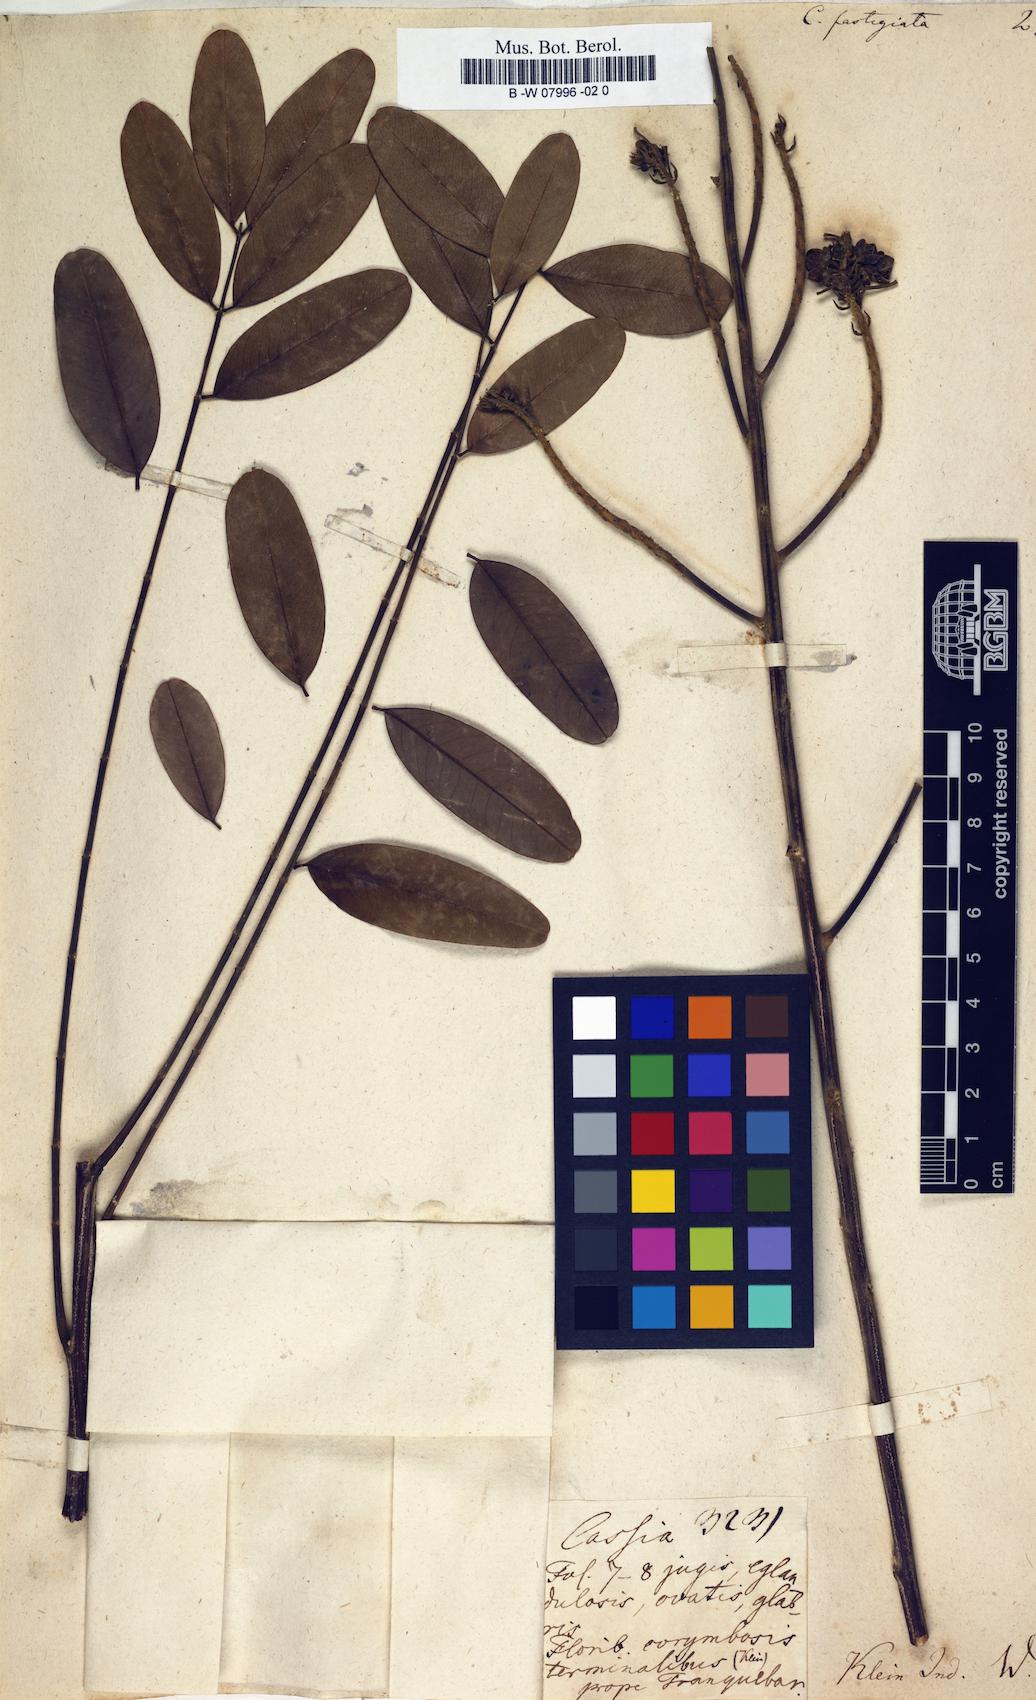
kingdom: Plantae
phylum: Tracheophyta
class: Magnoliopsida
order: Fabales
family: Fabaceae
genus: Senna
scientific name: Senna
